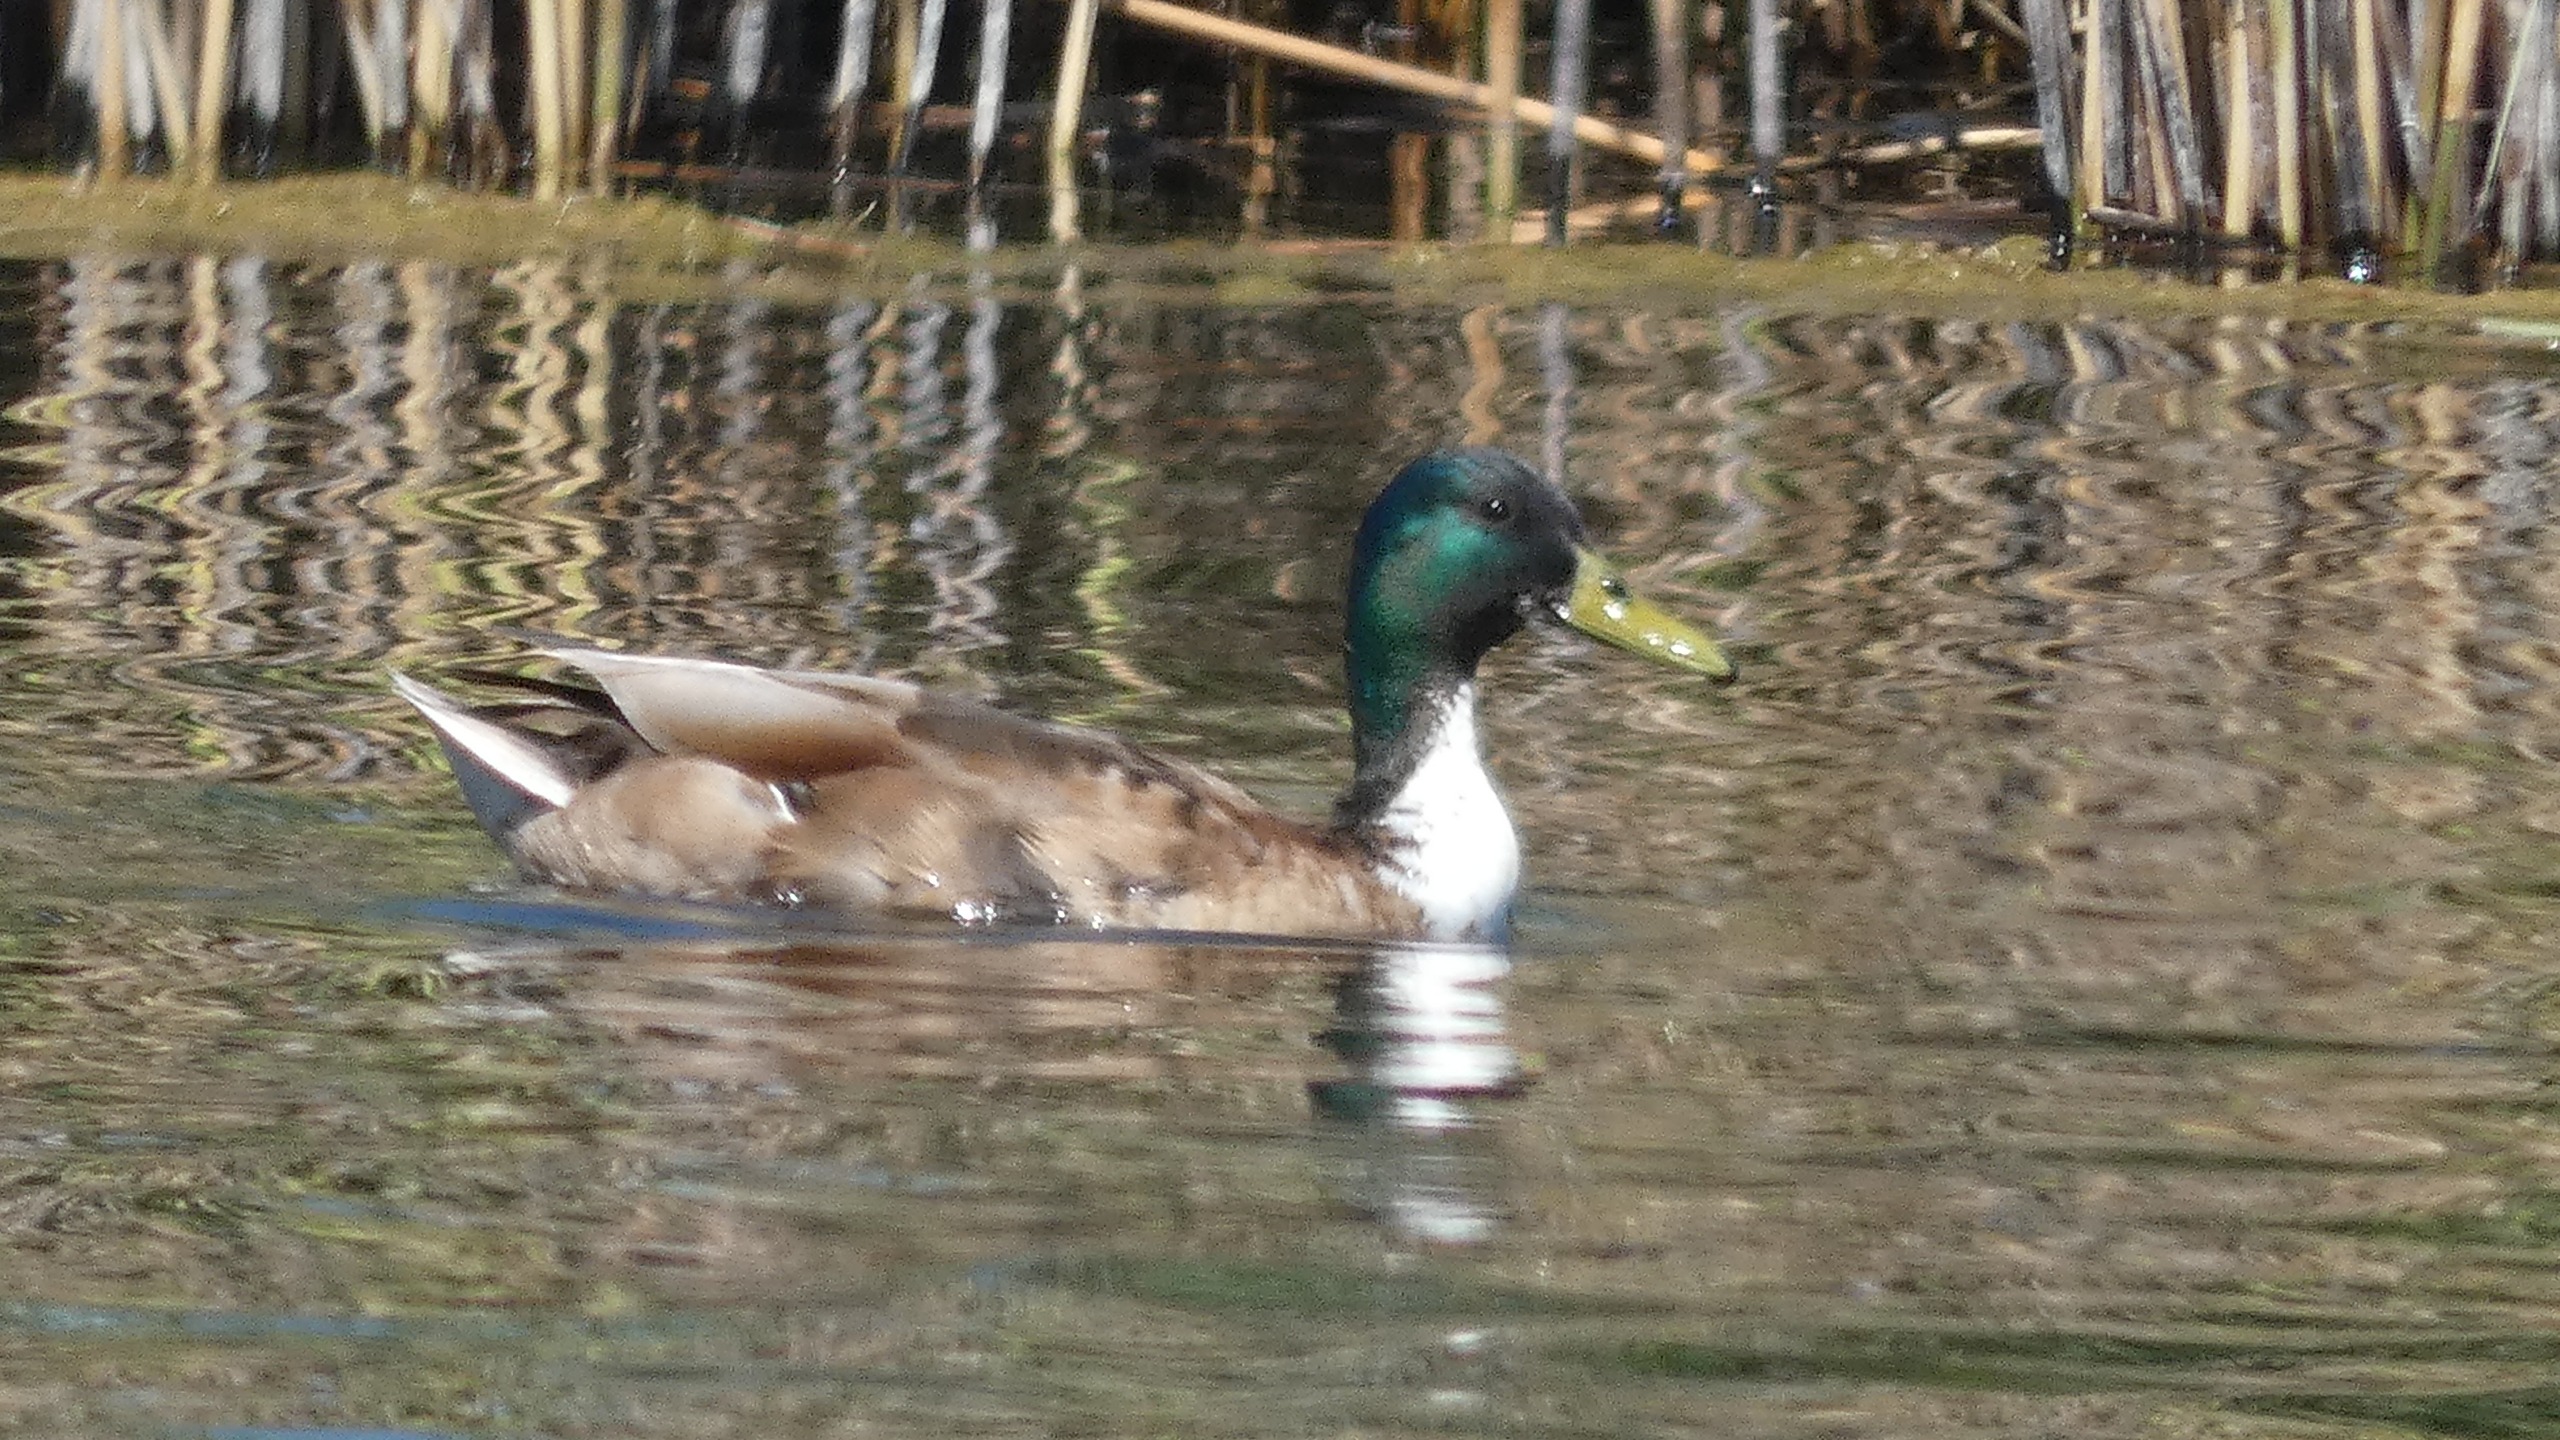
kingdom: Animalia
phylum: Chordata
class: Aves
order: Anseriformes
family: Anatidae
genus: Anas
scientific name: Anas platyrhynchos
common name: Gråand
